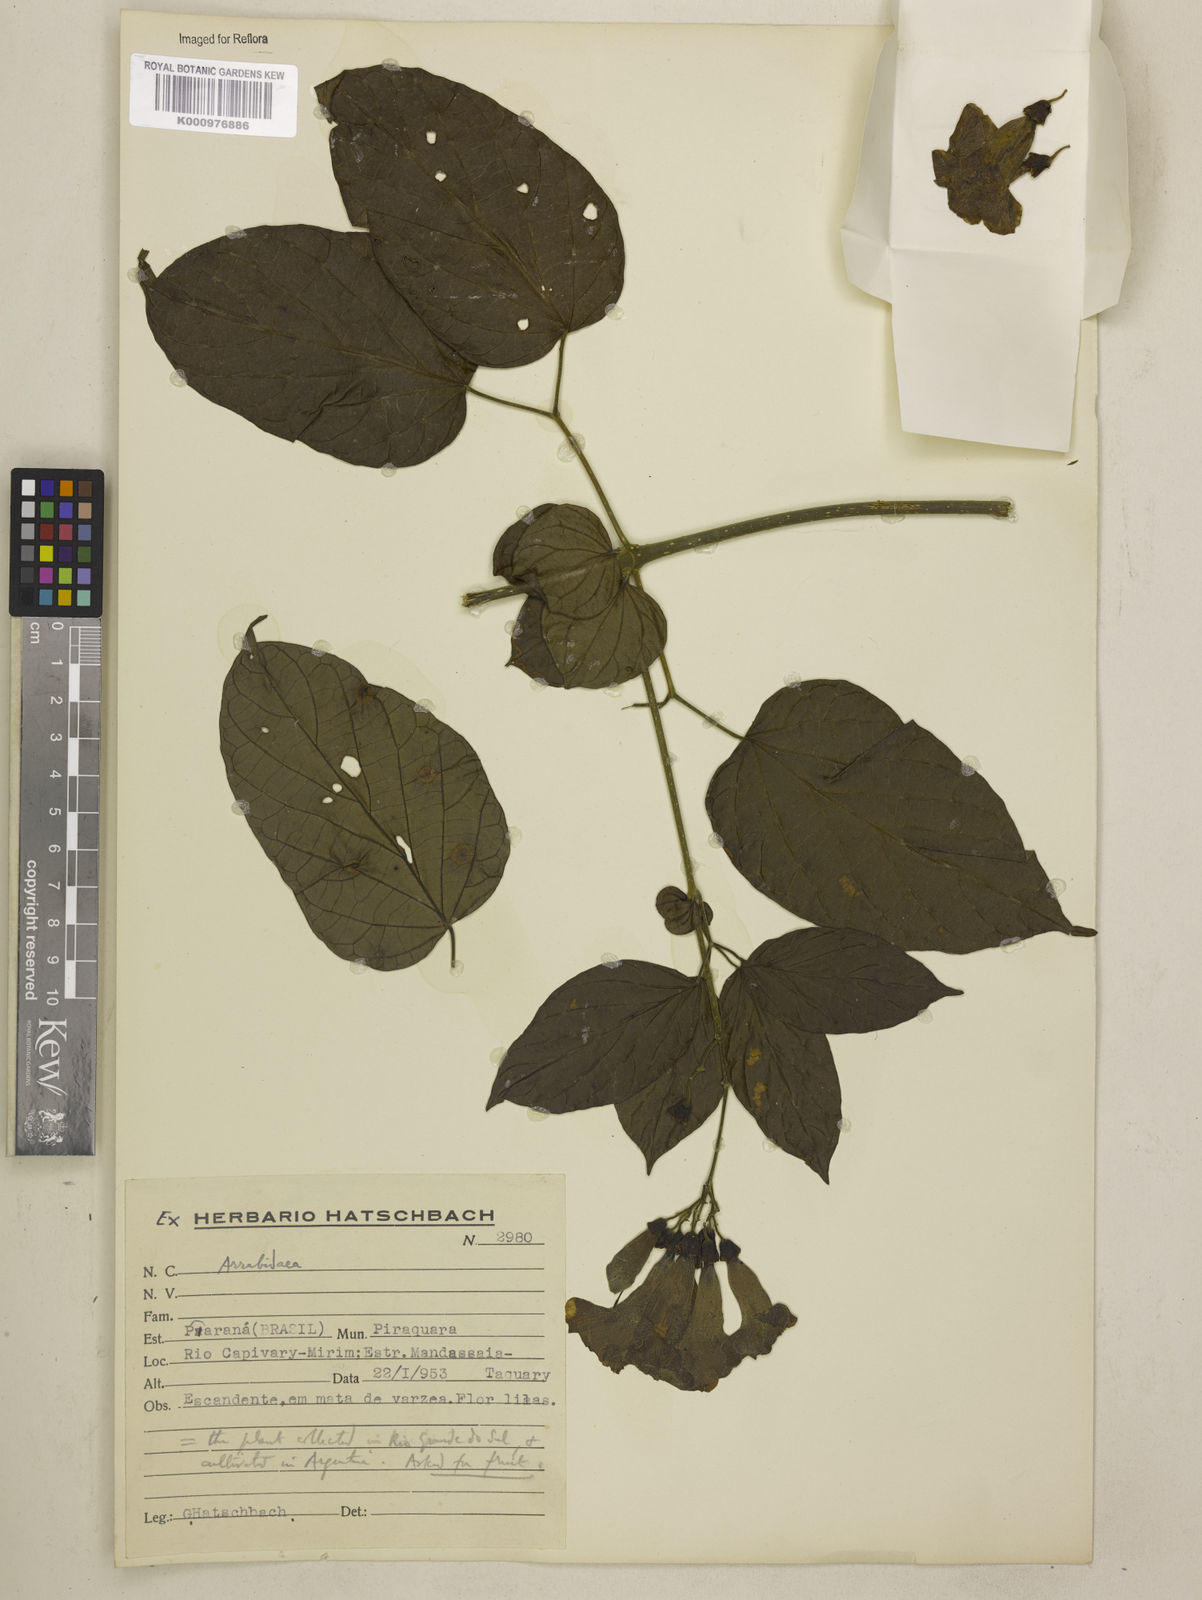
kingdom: Plantae
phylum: Tracheophyta
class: Magnoliopsida
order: Lamiales
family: Bignoniaceae
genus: Tanaecium
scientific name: Tanaecium dichotomum
